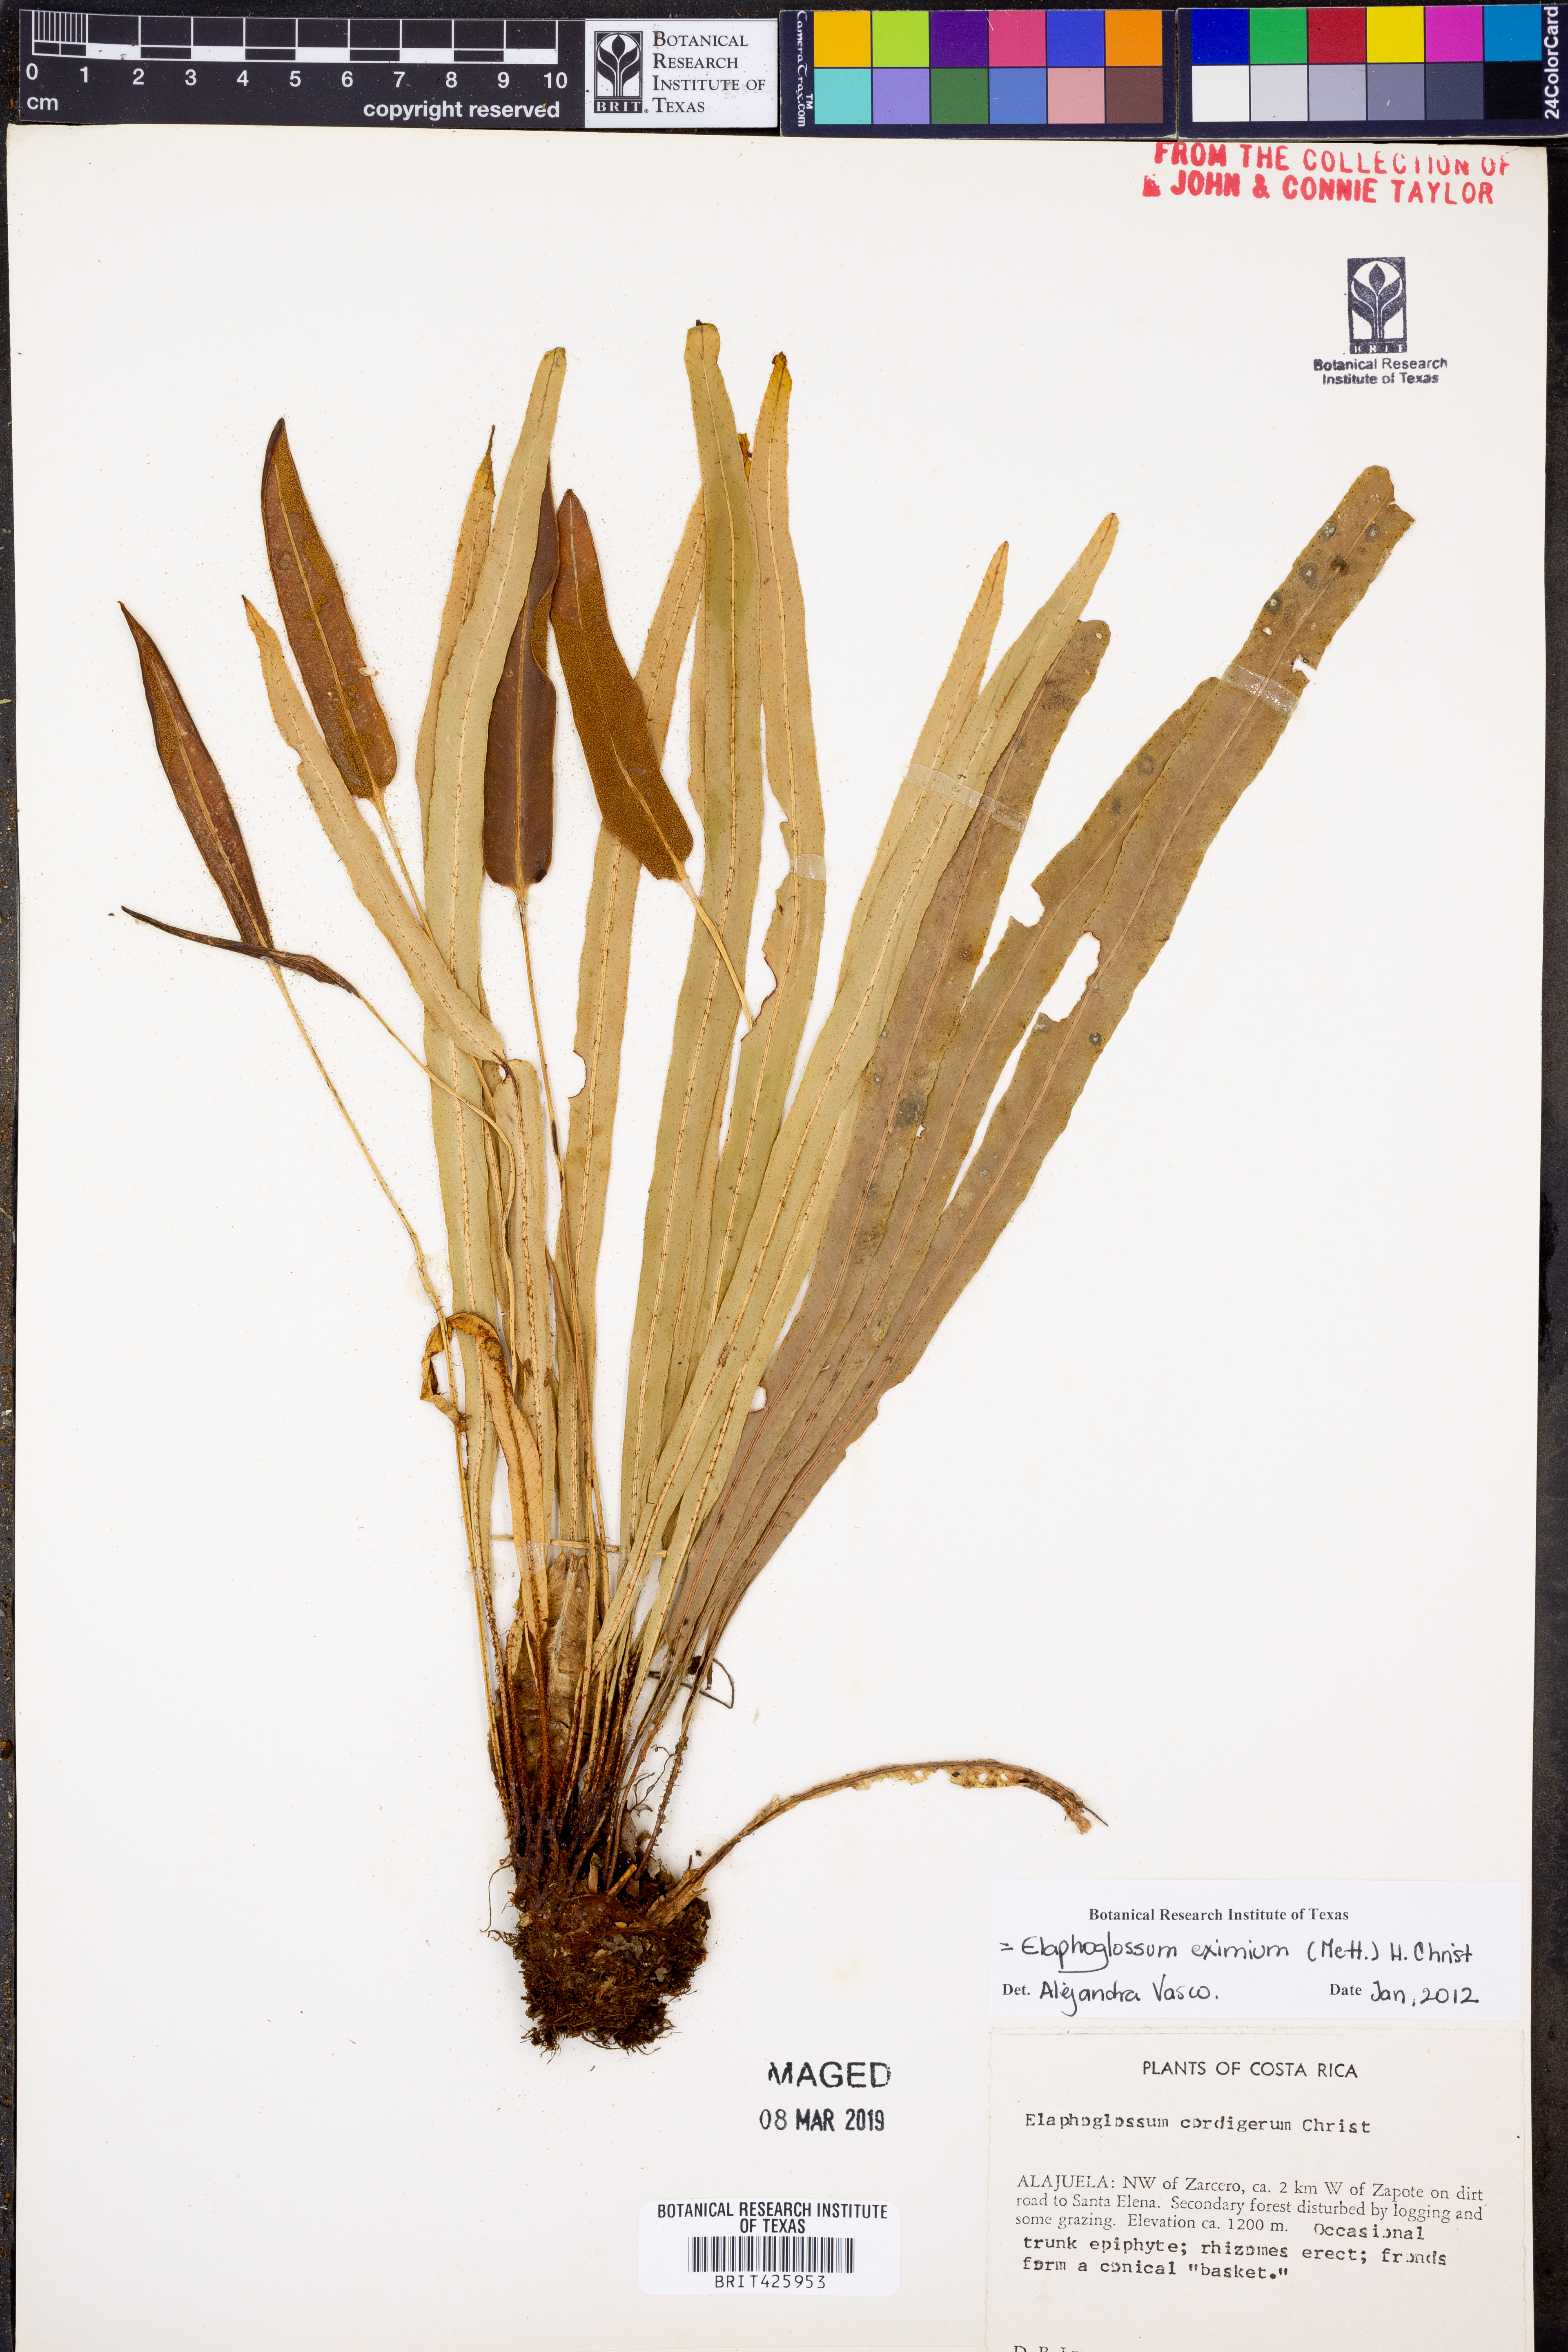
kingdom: Plantae
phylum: Tracheophyta
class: Polypodiopsida
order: Polypodiales
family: Dryopteridaceae
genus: Elaphoglossum
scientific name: Elaphoglossum eximium
